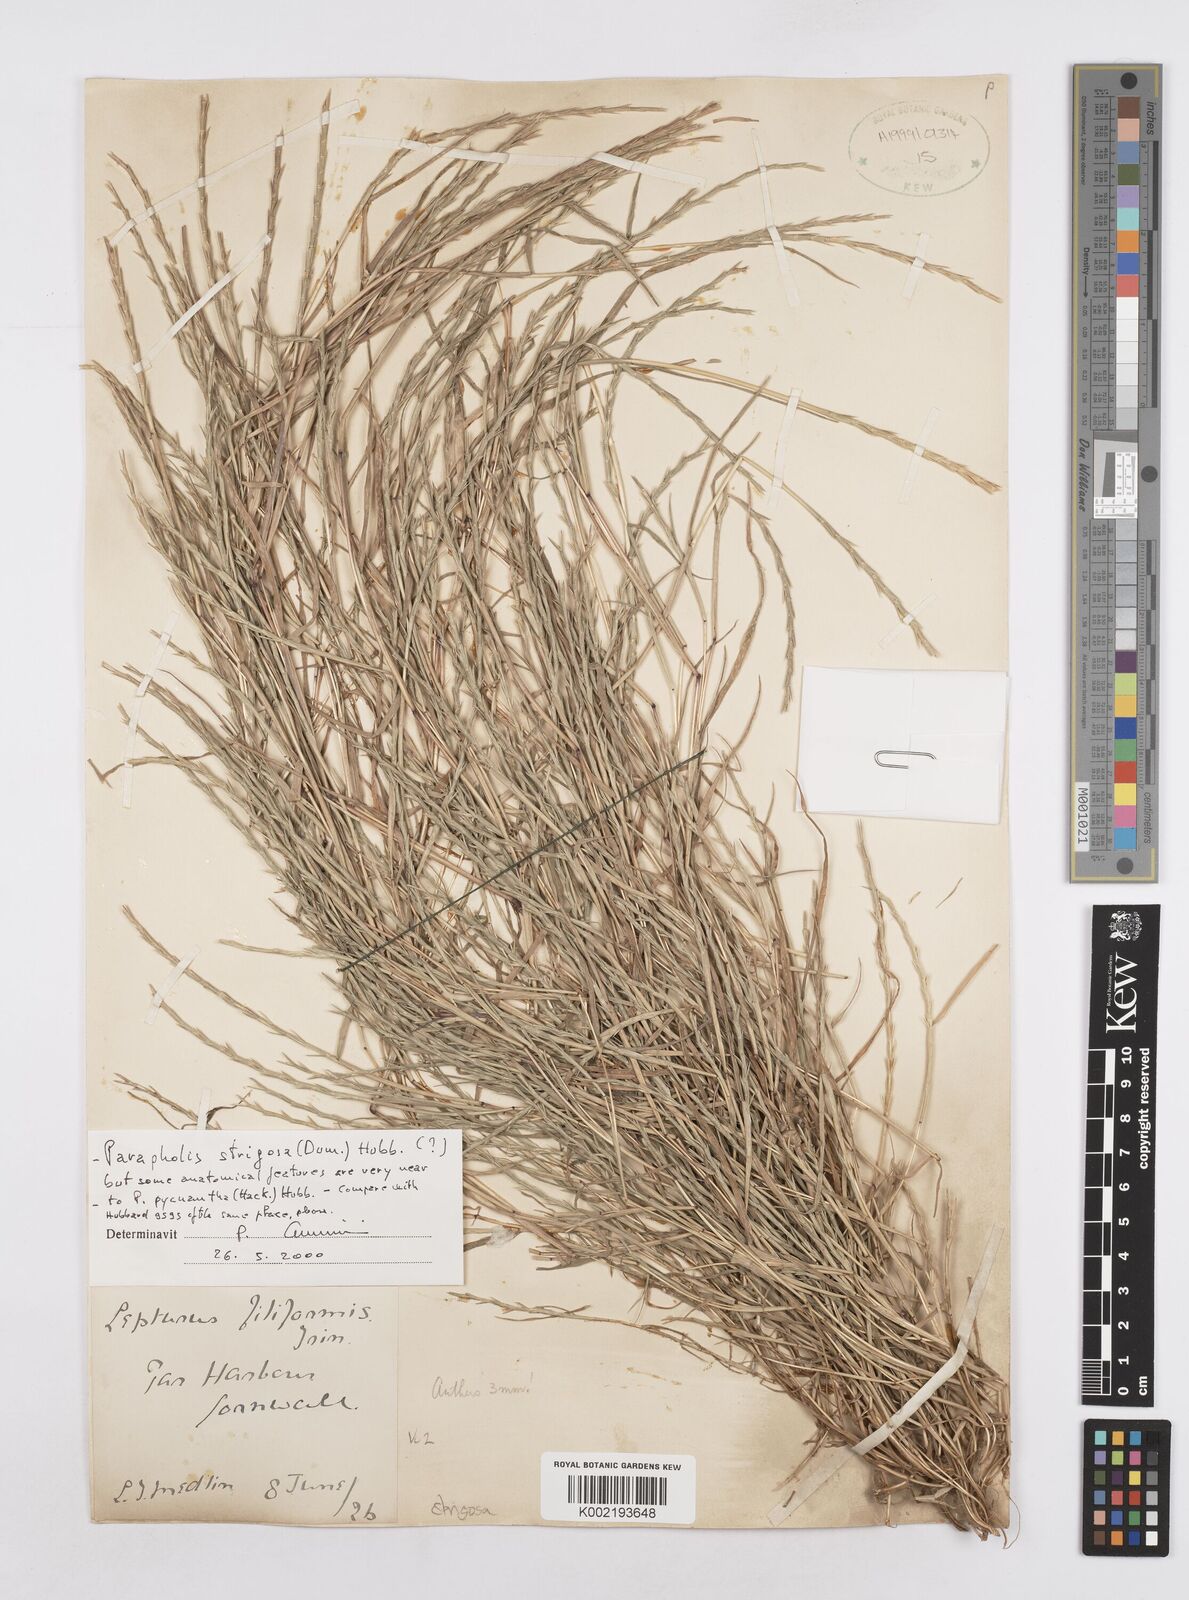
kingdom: Plantae
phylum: Tracheophyta
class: Liliopsida
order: Poales
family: Poaceae
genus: Parapholis
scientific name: Parapholis strigosa
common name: Hard-grass
